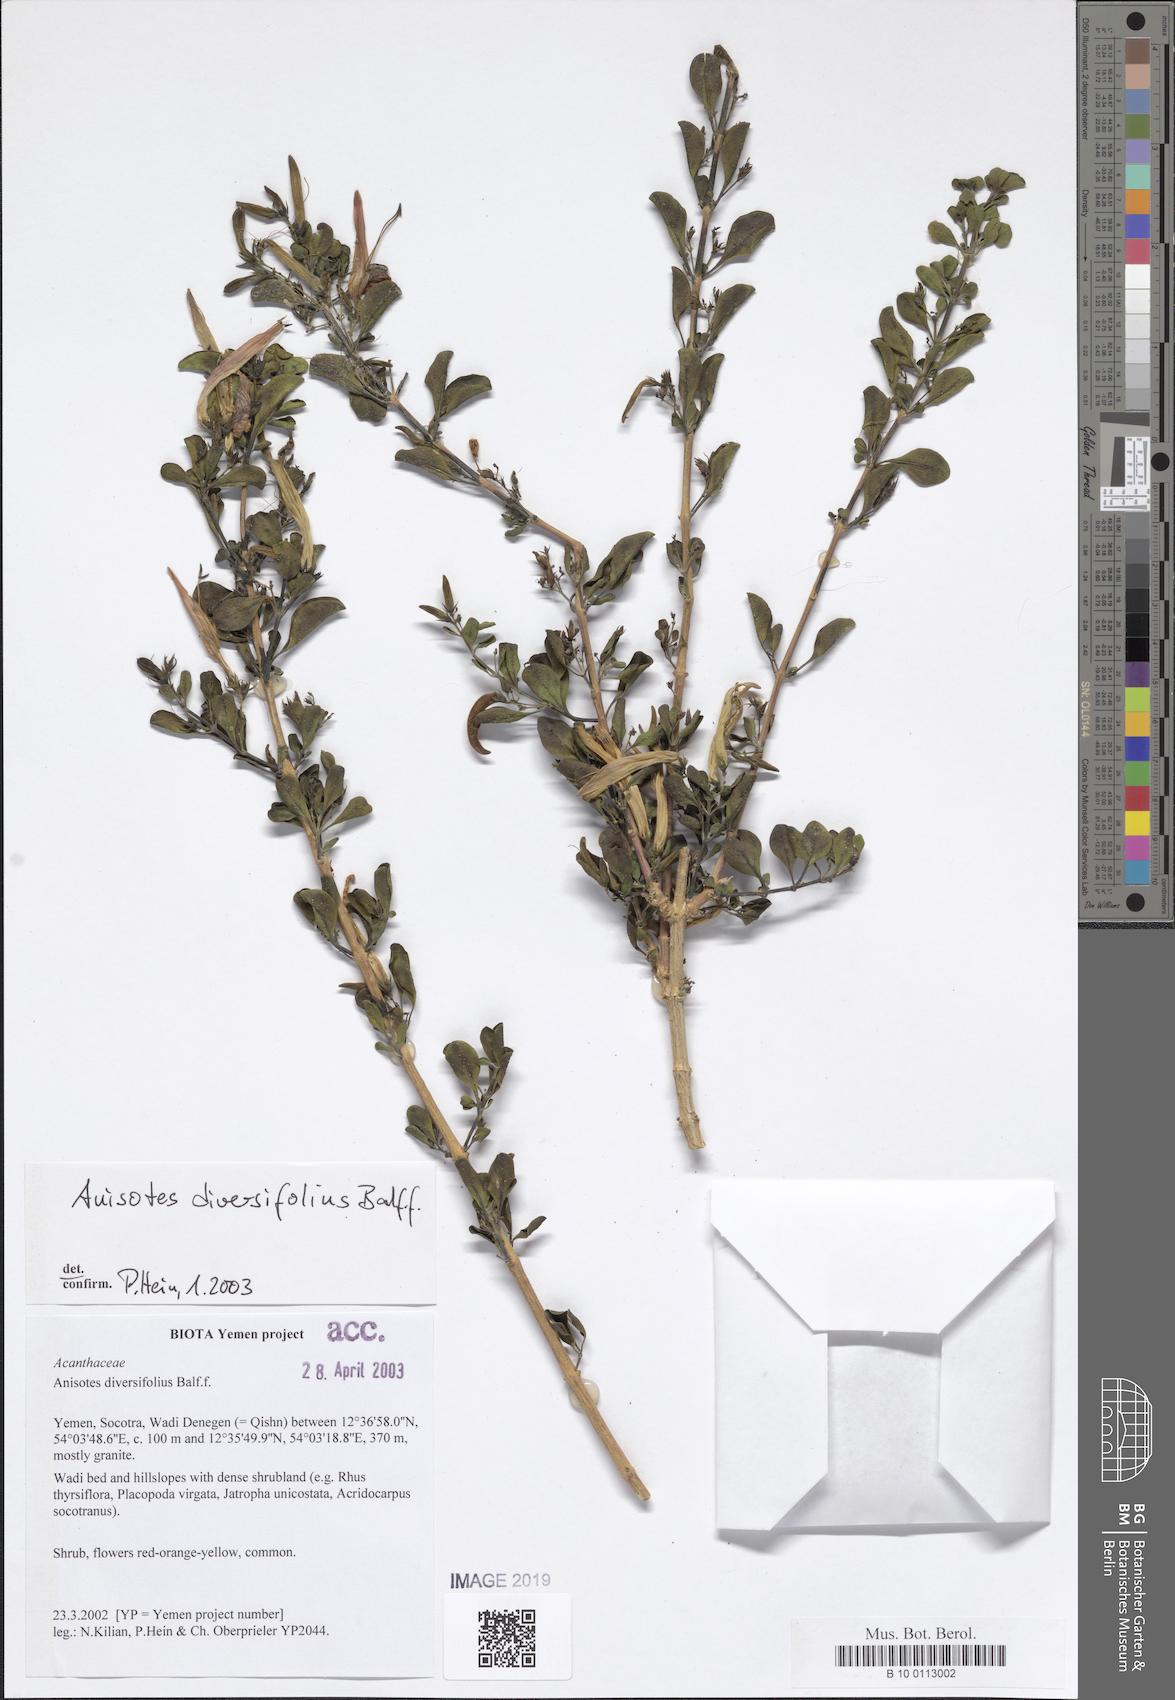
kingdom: Plantae
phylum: Tracheophyta
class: Magnoliopsida
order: Lamiales
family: Acanthaceae
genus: Anisotes
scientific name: Anisotes diversifolius
